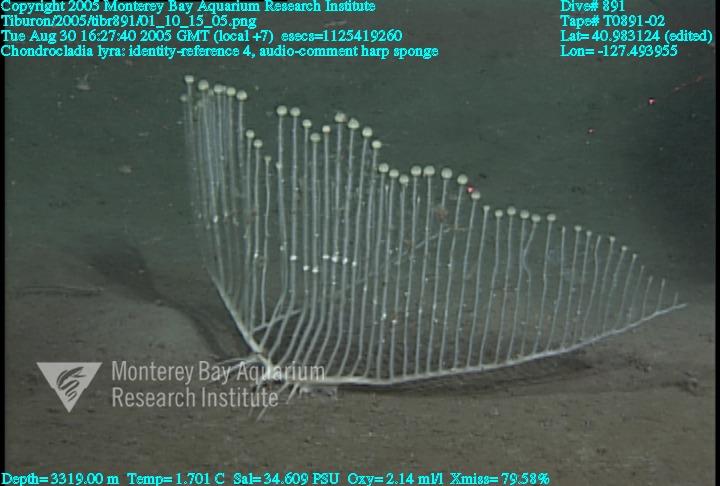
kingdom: Animalia
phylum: Porifera
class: Demospongiae
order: Poecilosclerida
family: Cladorhizidae
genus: Chondrocladia
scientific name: Chondrocladia lyra
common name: Harp sponge
